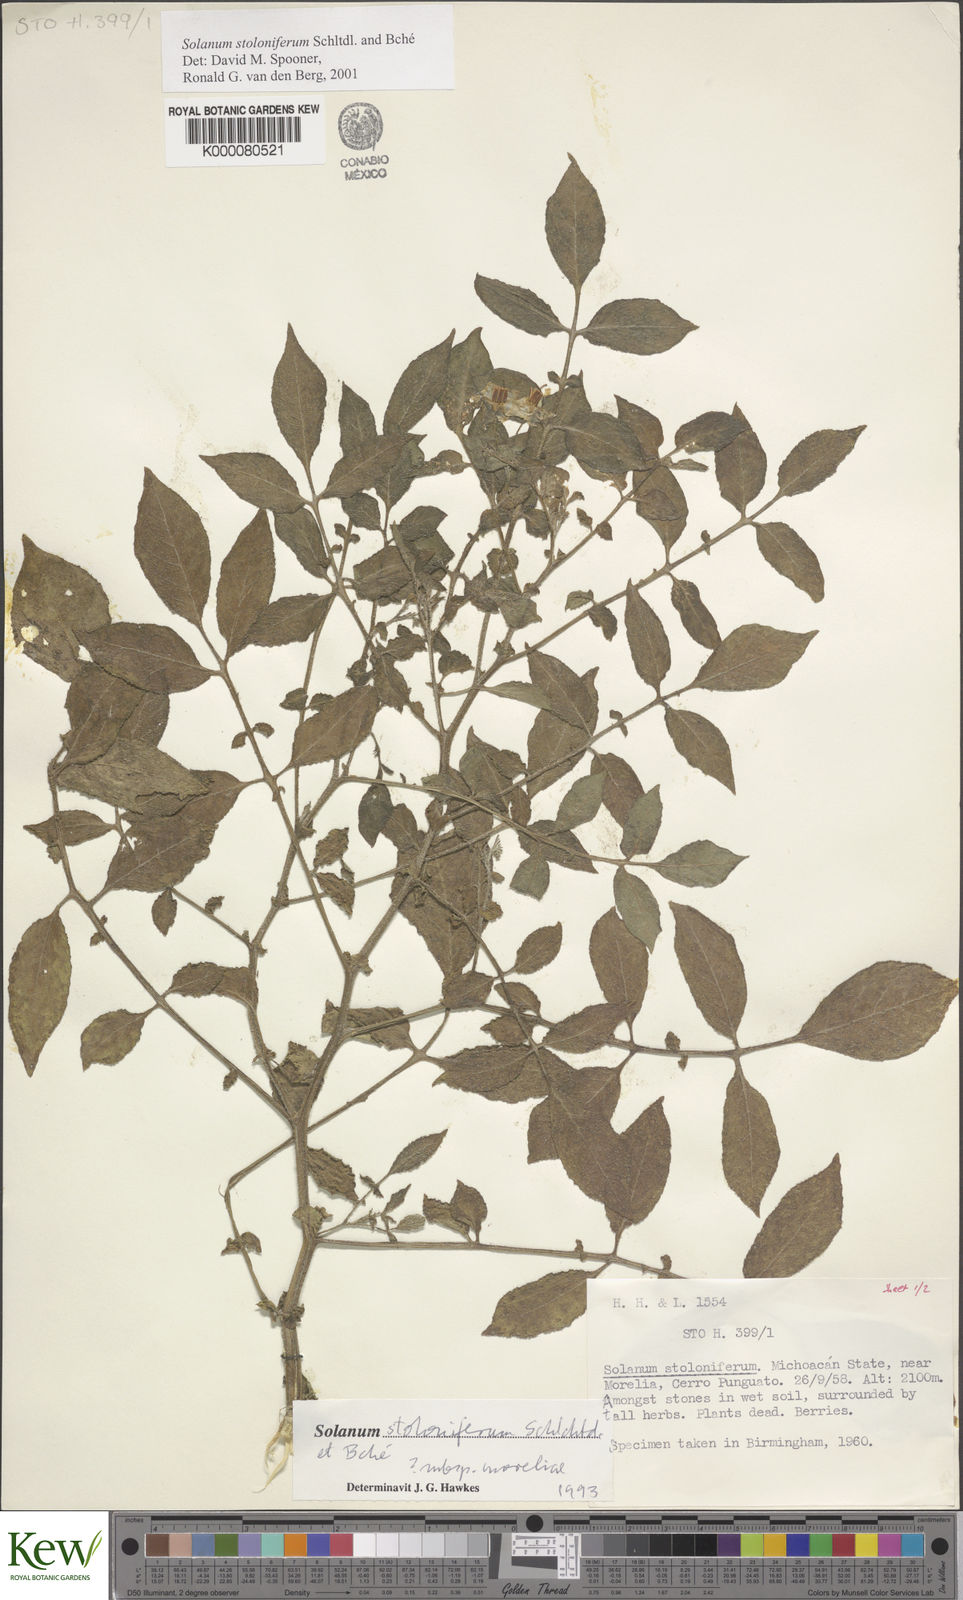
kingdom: Plantae
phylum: Tracheophyta
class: Magnoliopsida
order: Solanales
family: Solanaceae
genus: Solanum
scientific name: Solanum stoloniferum
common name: Fendler's nighshade
